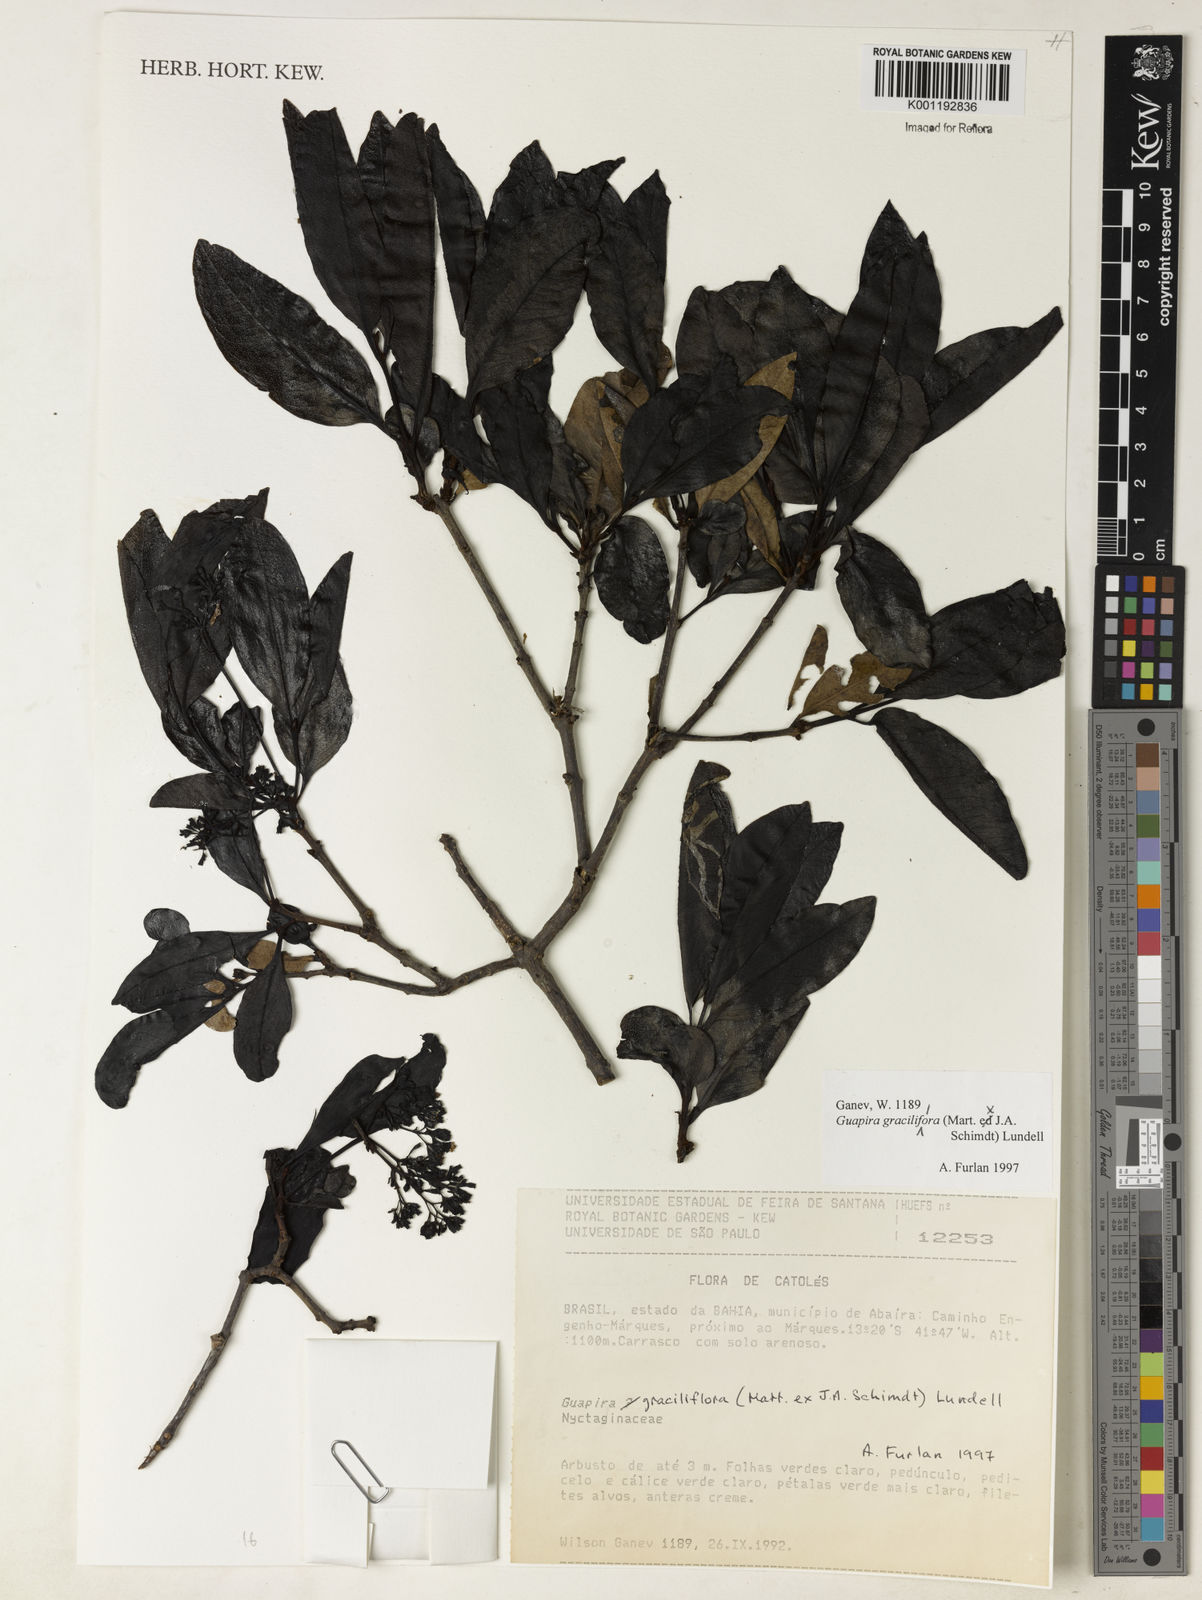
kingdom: Plantae
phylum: Tracheophyta
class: Magnoliopsida
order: Caryophyllales
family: Nyctaginaceae
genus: Guapira
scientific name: Guapira graciliflora
